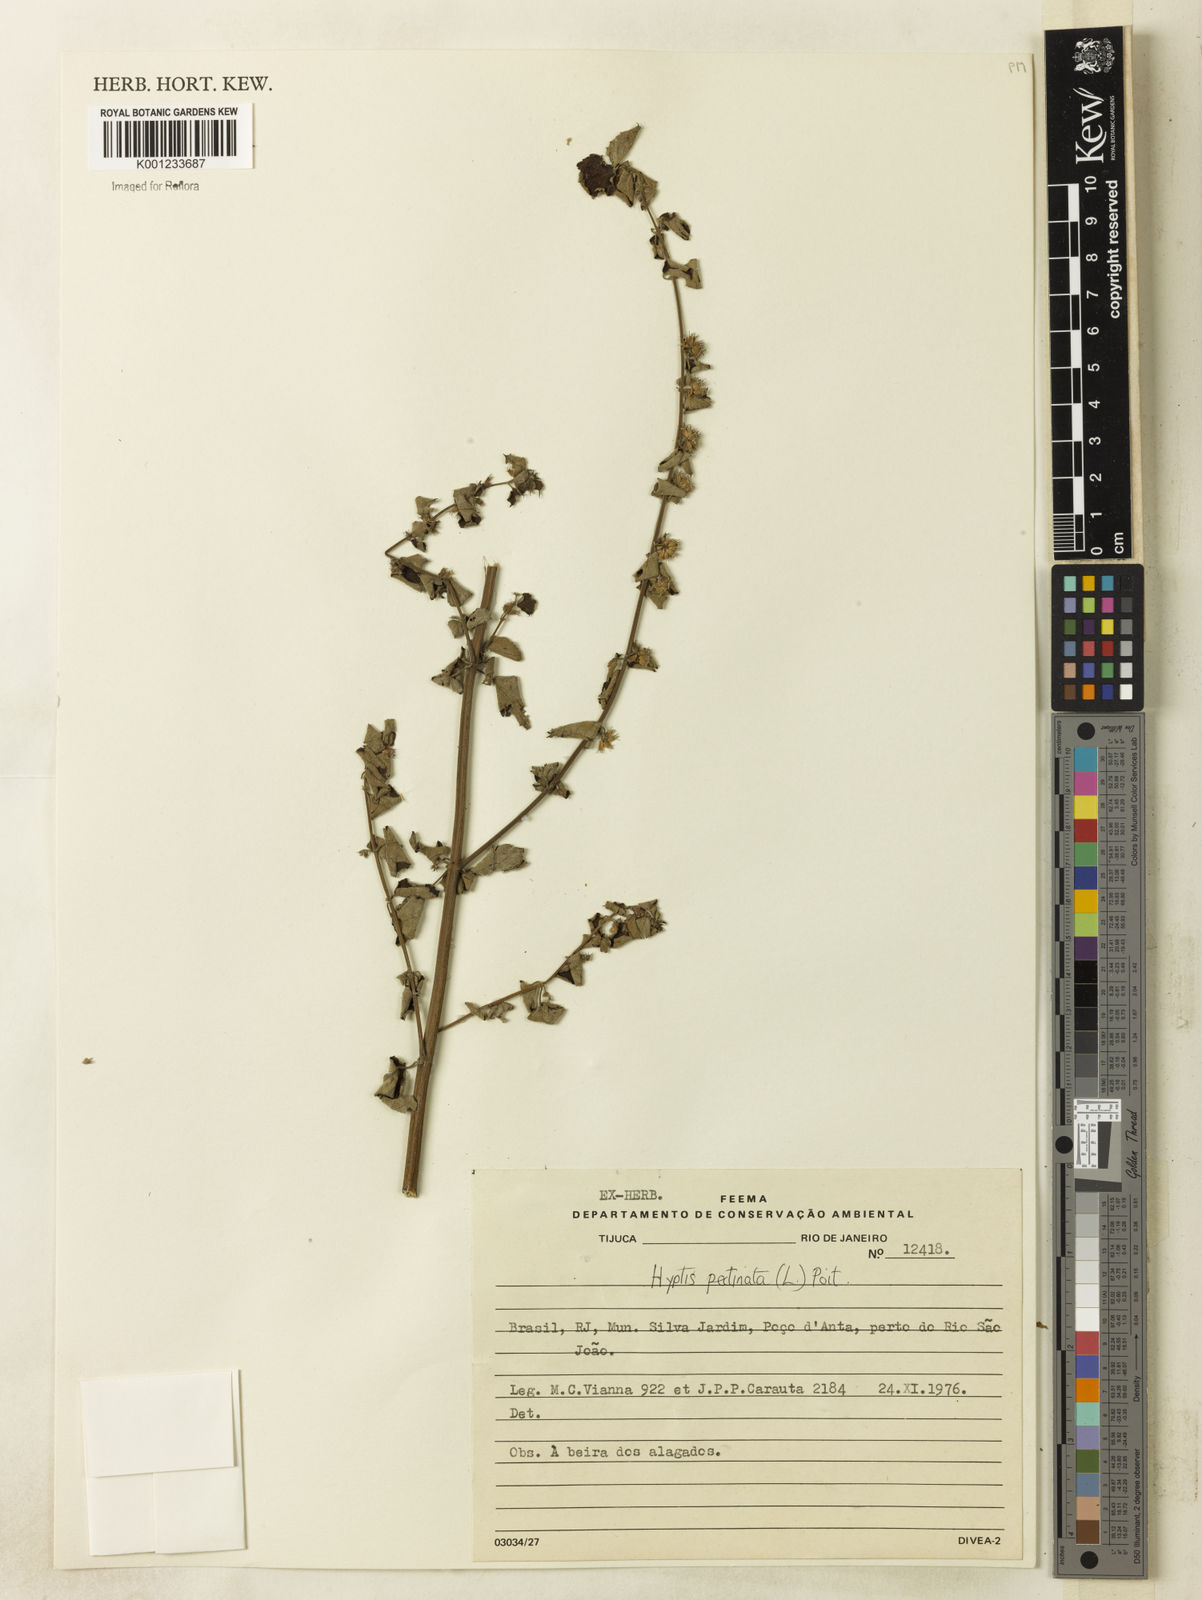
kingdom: Plantae
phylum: Tracheophyta
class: Magnoliopsida
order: Lamiales
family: Lamiaceae
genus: Mesosphaerum
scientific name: Mesosphaerum pectinatum
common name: Comb hyptis
